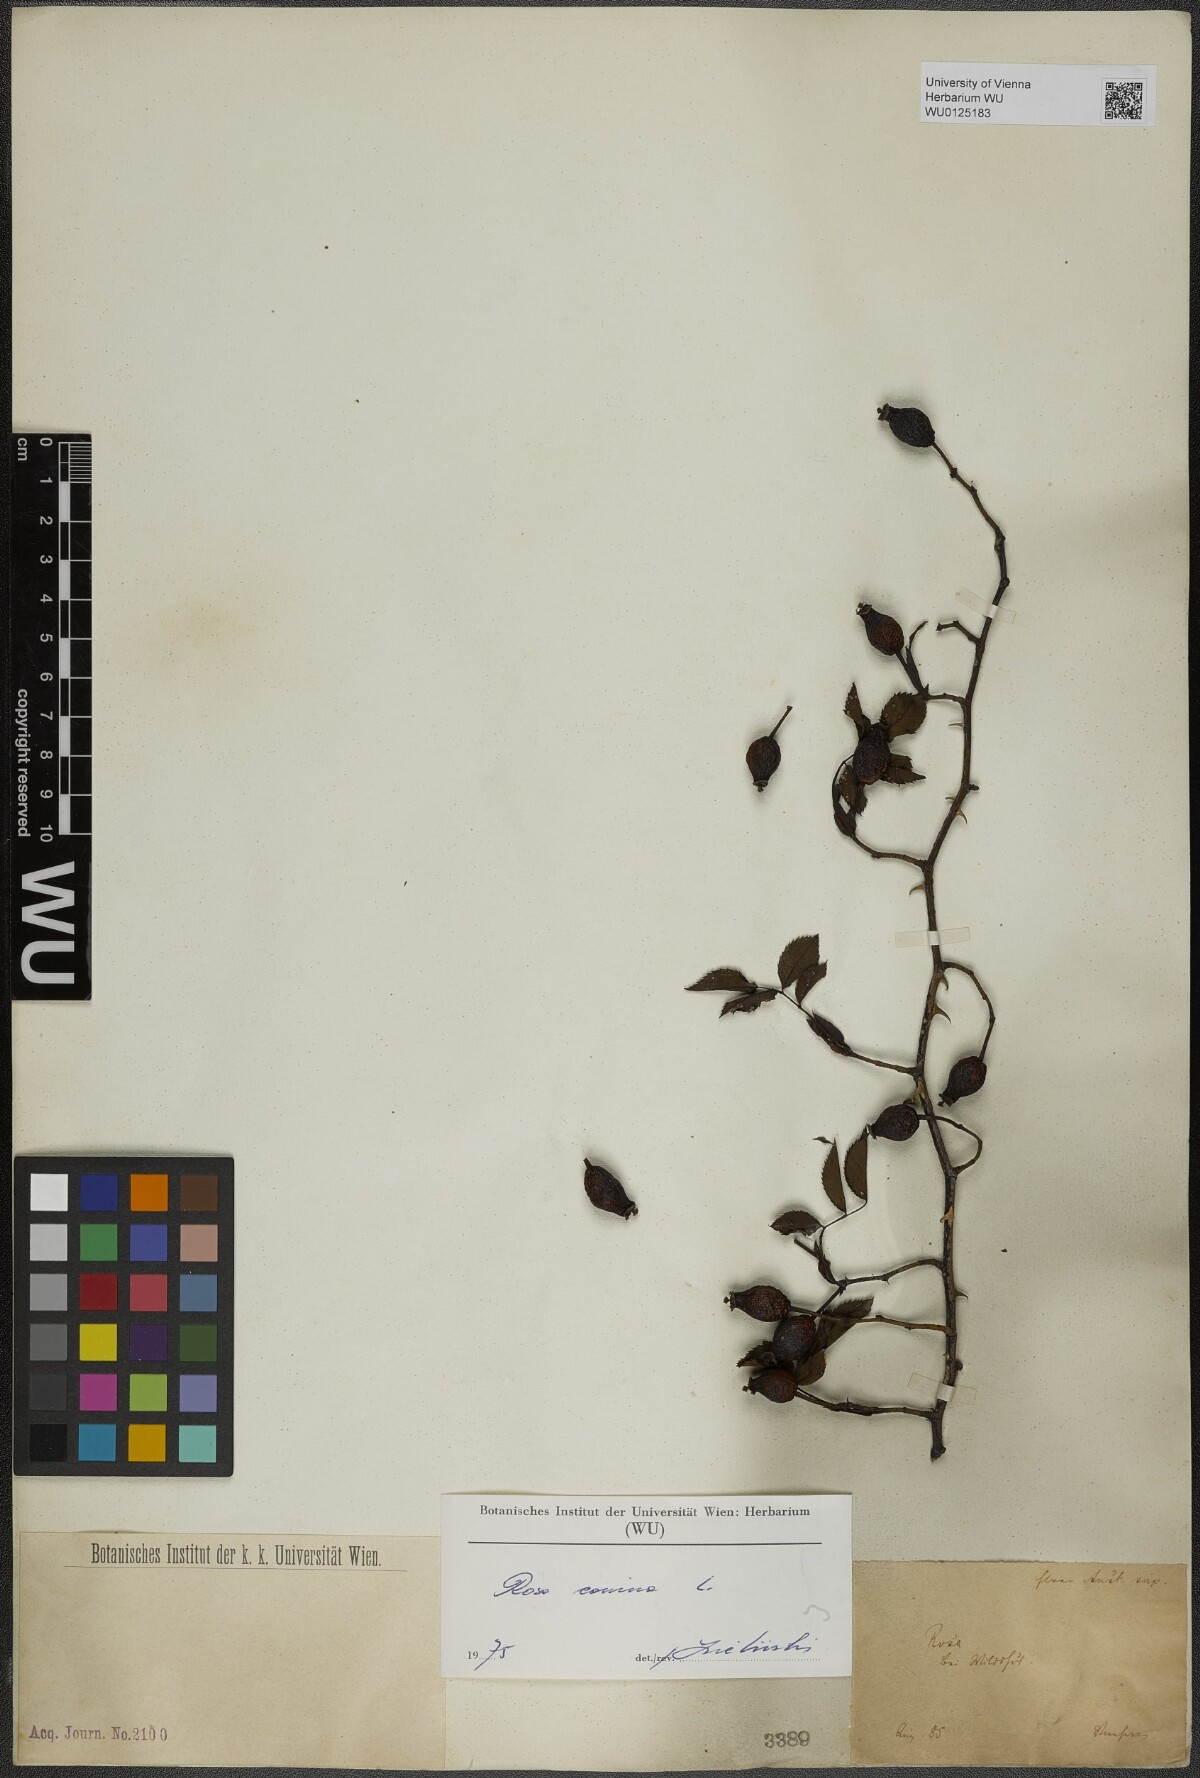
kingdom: Plantae
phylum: Tracheophyta
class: Magnoliopsida
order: Rosales
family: Rosaceae
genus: Rosa
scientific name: Rosa canina
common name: Dog rose
